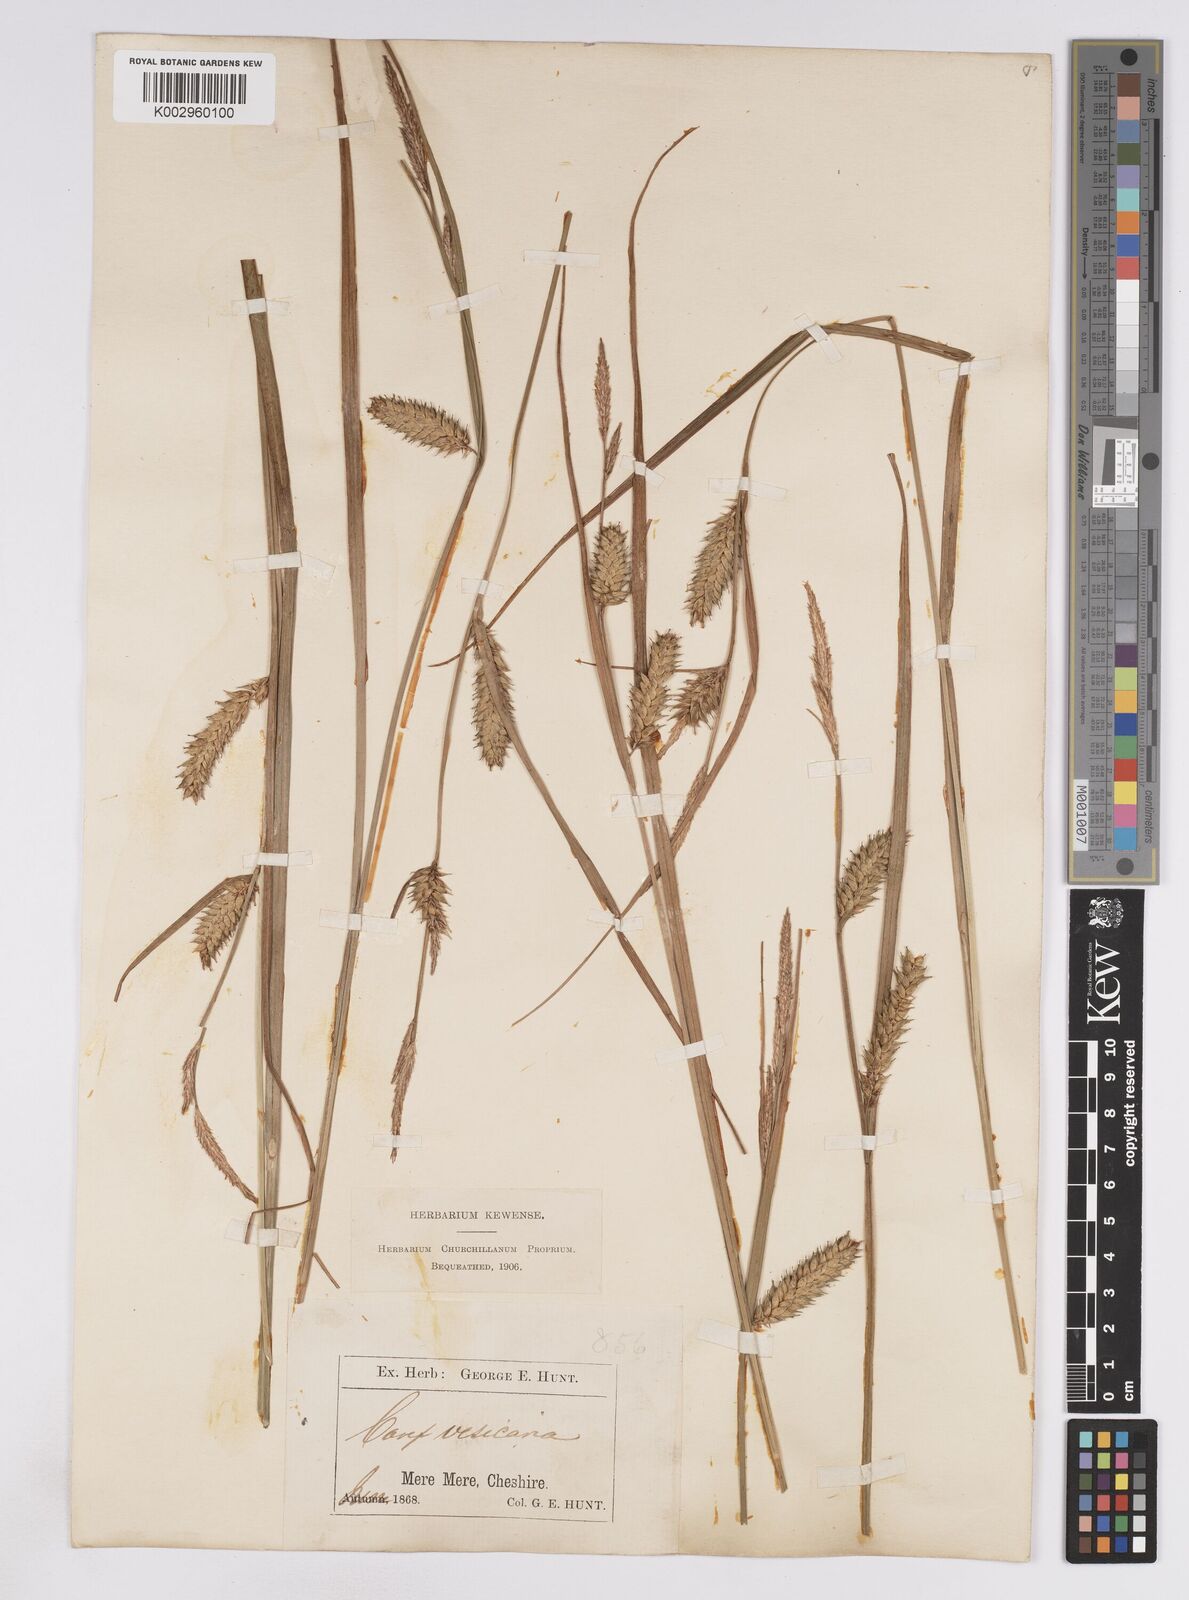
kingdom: Plantae
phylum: Tracheophyta
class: Liliopsida
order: Poales
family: Cyperaceae
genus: Carex
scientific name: Carex vesicaria
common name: Bladder-sedge
